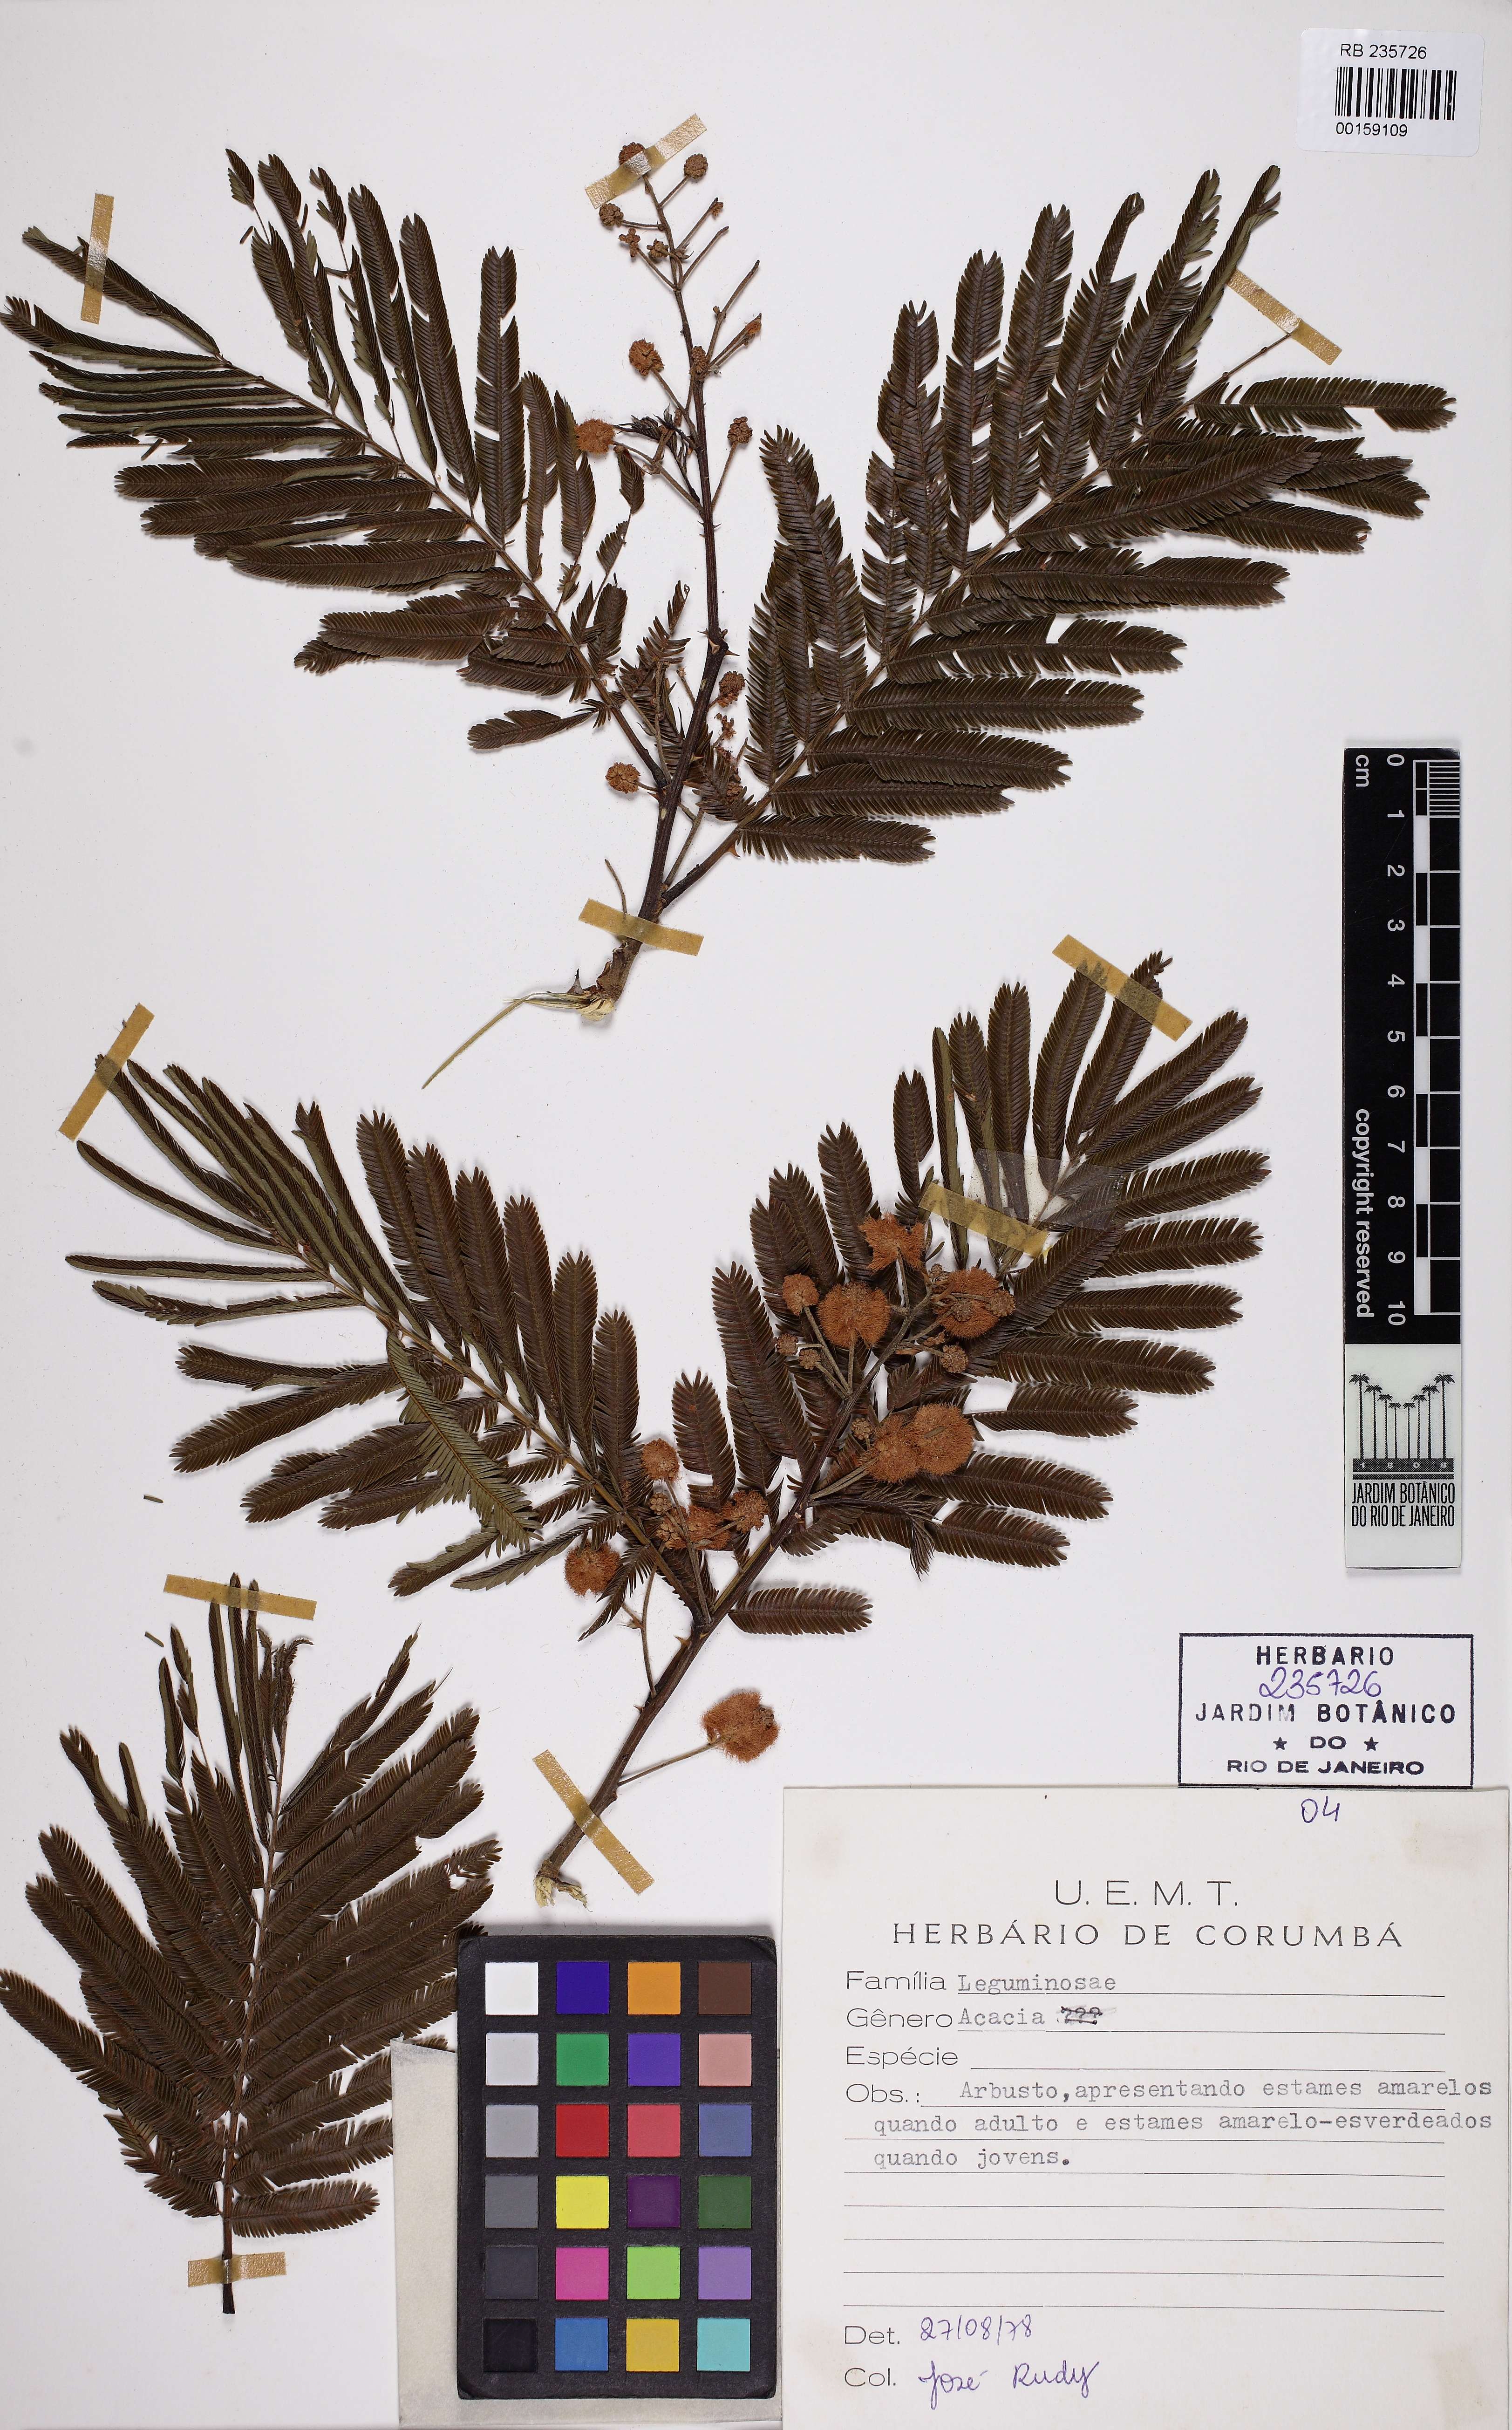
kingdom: Plantae
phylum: Tracheophyta
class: Magnoliopsida
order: Fabales
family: Fabaceae
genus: Acacia
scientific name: Acacia
